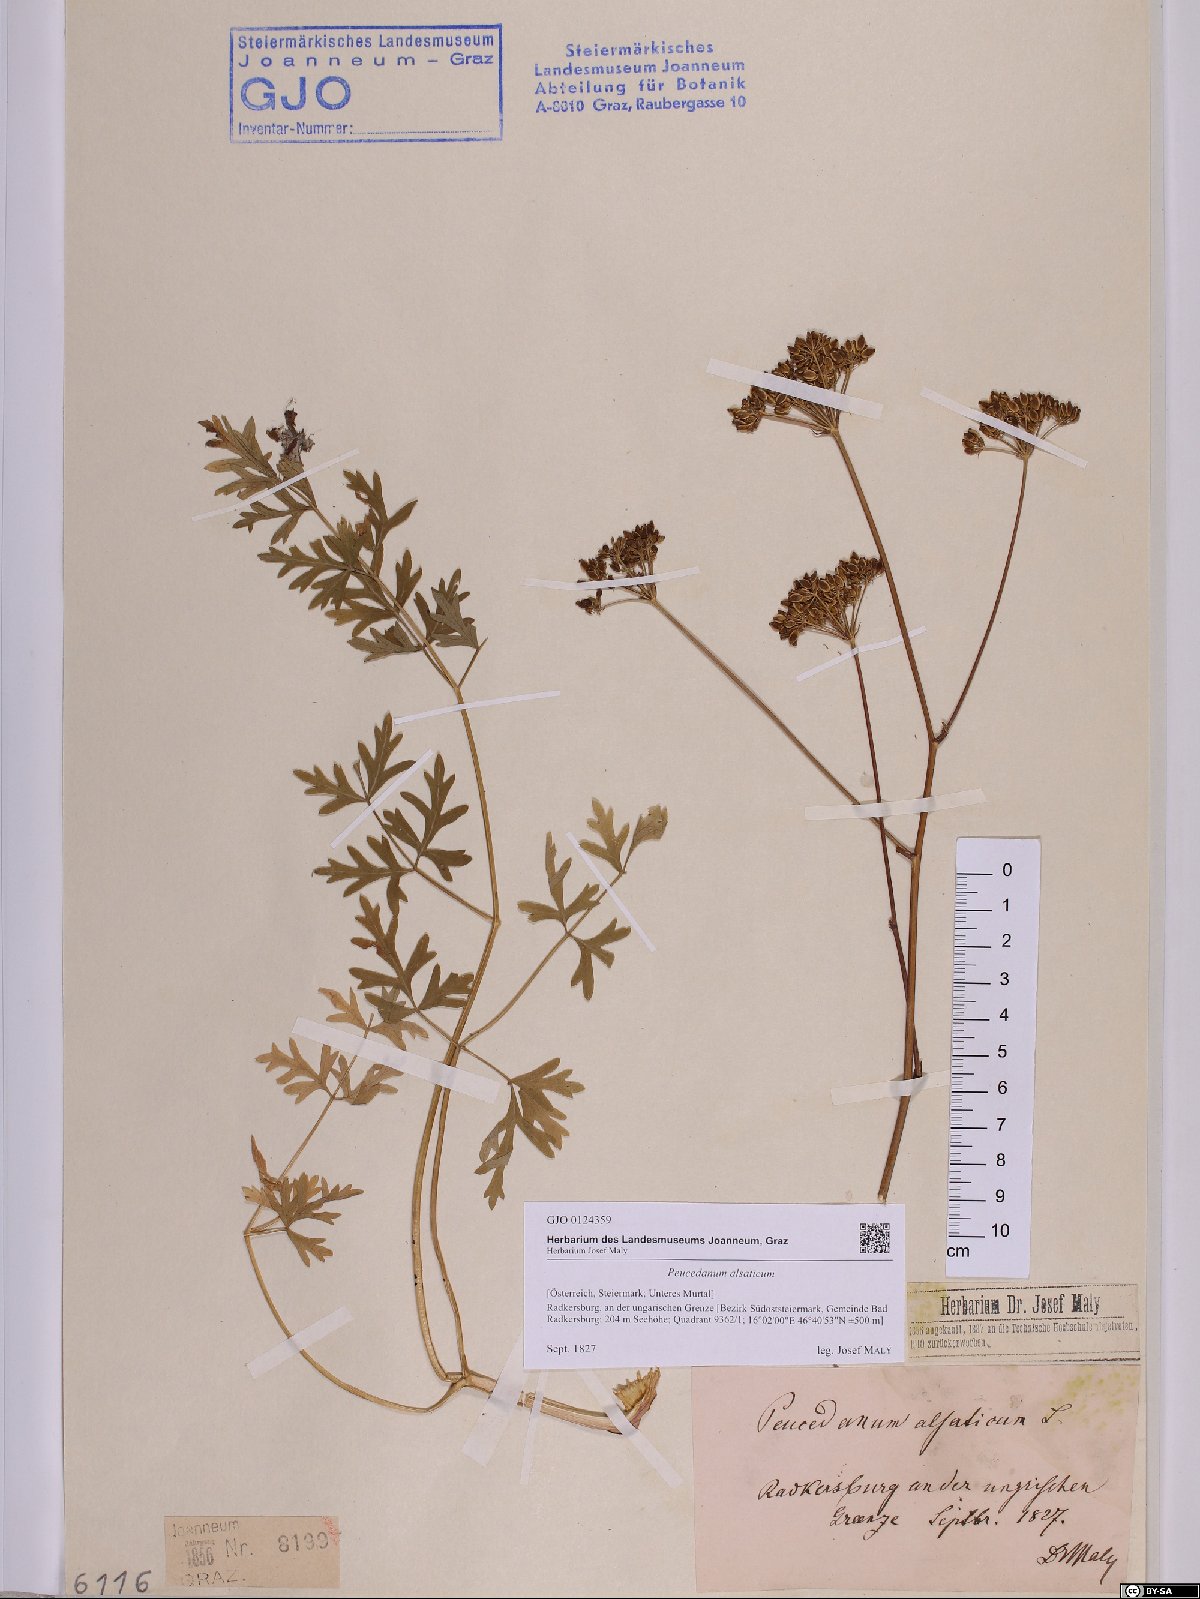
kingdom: Plantae
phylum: Tracheophyta
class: Magnoliopsida
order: Apiales
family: Apiaceae
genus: Xanthoselinum
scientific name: Xanthoselinum alsaticum
